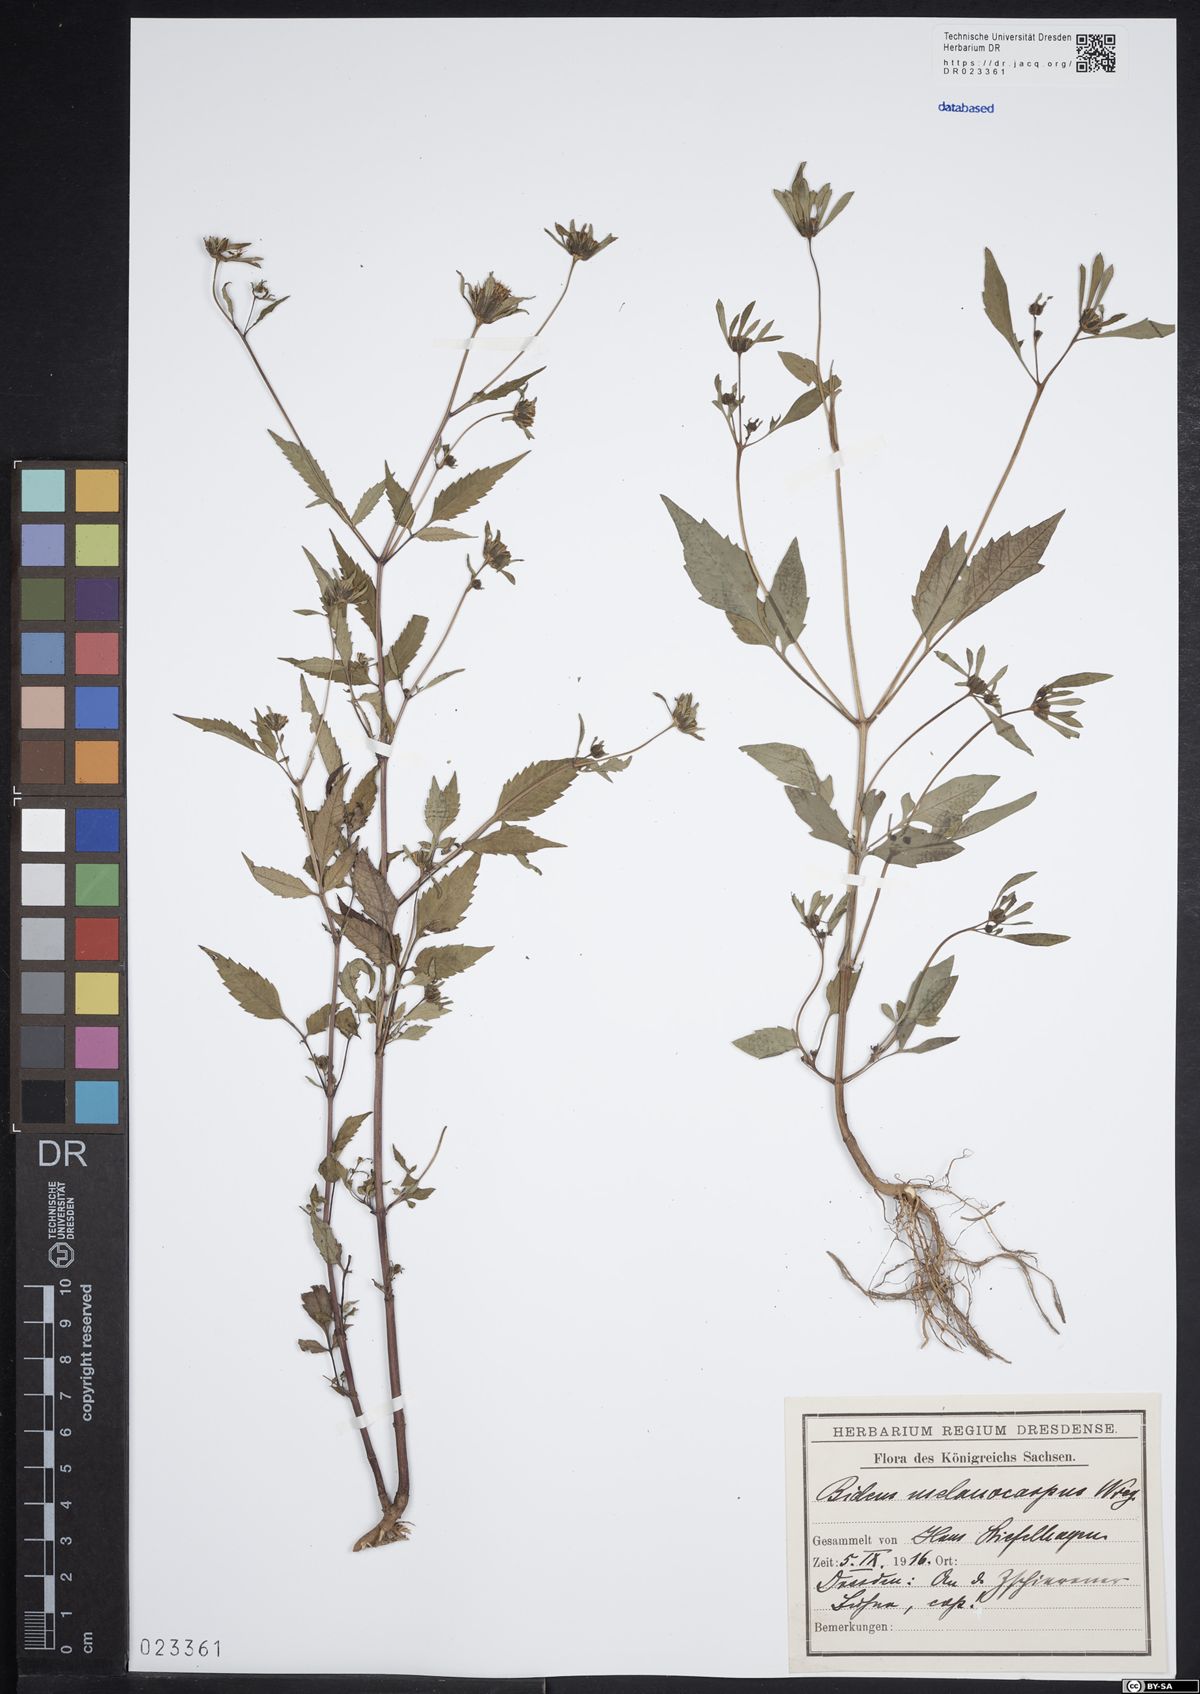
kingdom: Plantae
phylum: Tracheophyta
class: Magnoliopsida
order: Asterales
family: Asteraceae
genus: Bidens
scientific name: Bidens frondosa
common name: Beggarticks
